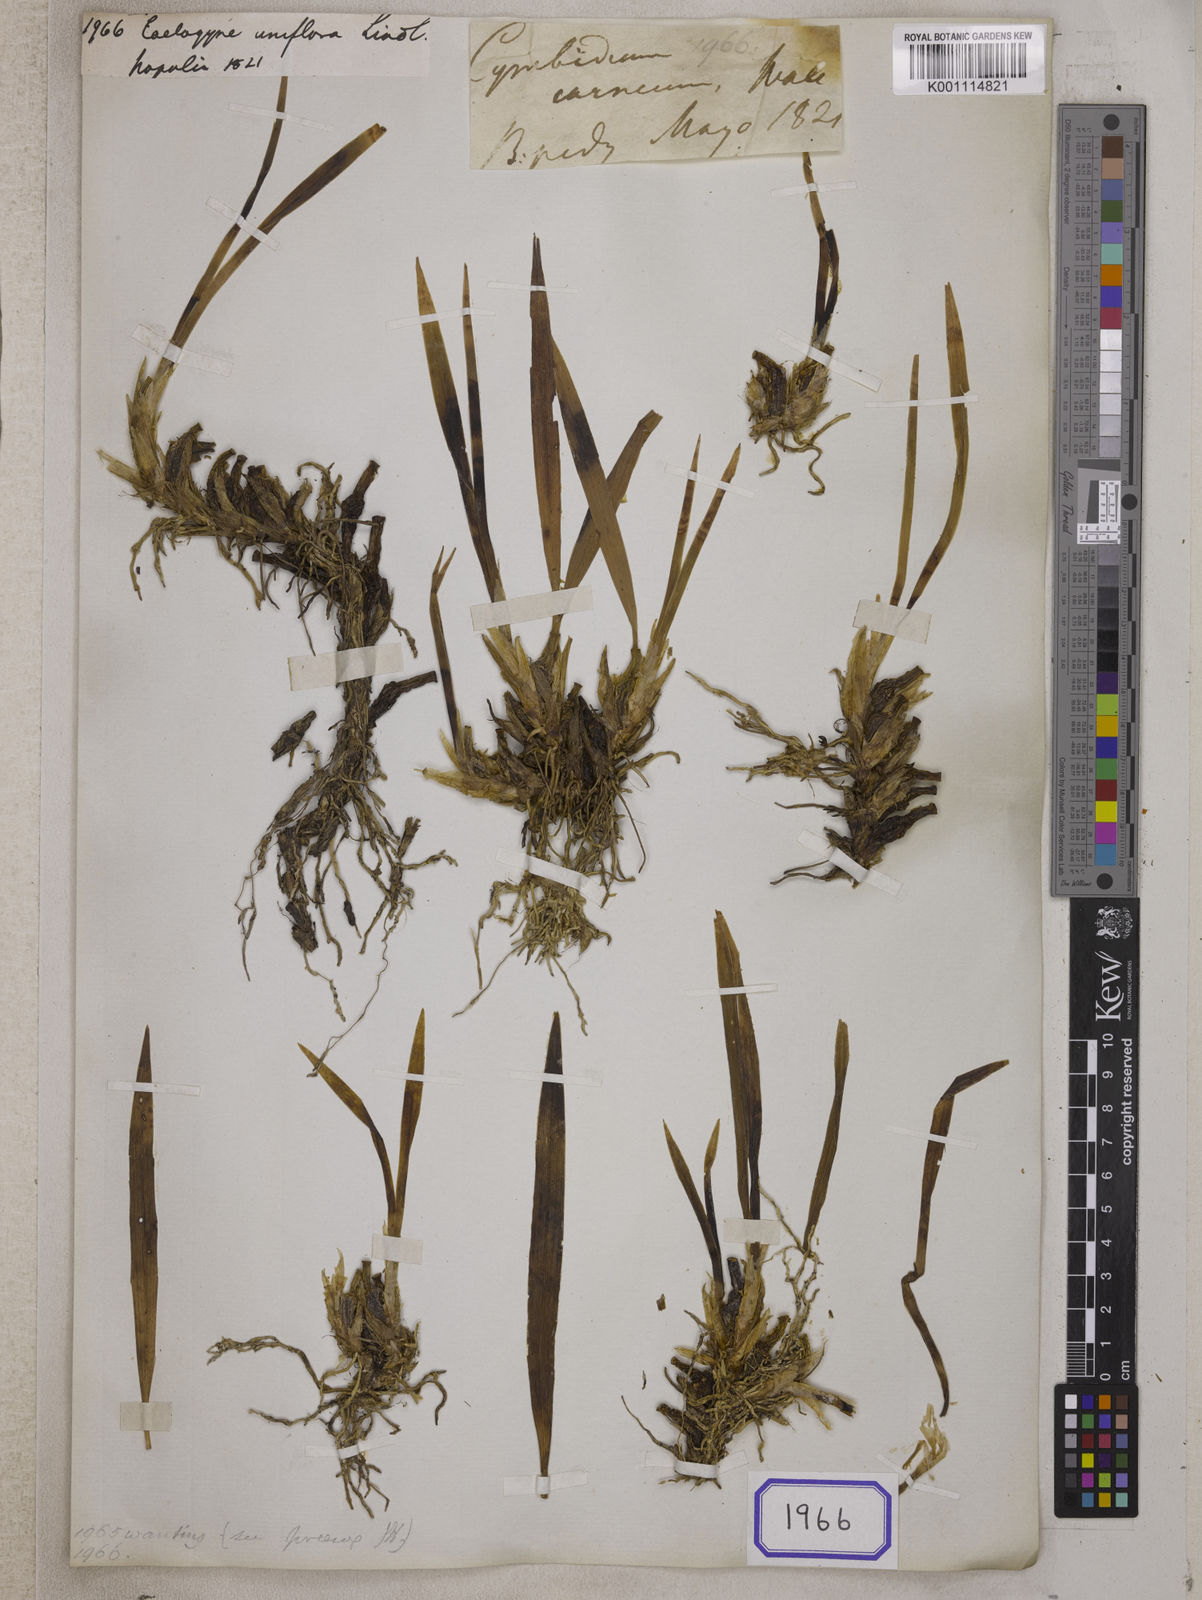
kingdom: Plantae
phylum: Tracheophyta
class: Liliopsida
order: Asparagales
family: Orchidaceae
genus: Coelogyne
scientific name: Coelogyne uniflora
